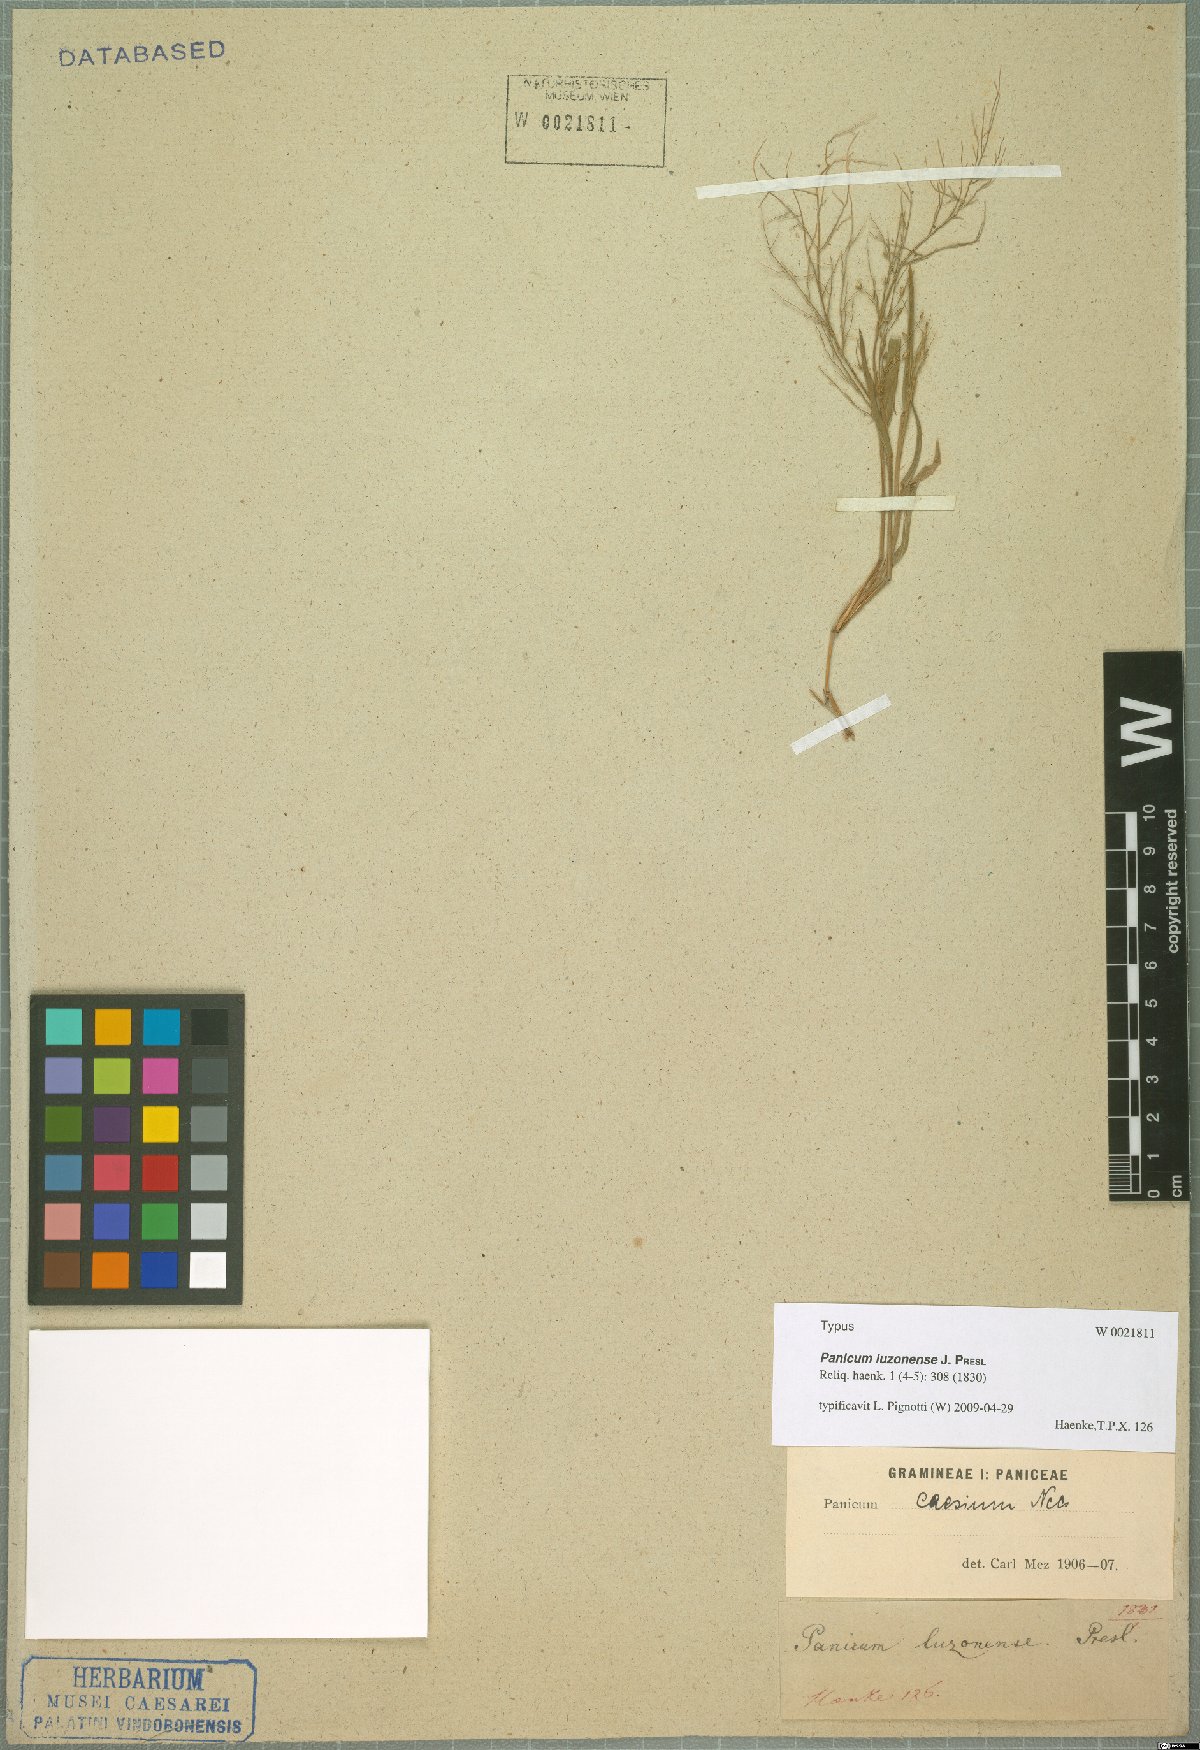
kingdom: Plantae
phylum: Tracheophyta
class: Liliopsida
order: Poales
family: Poaceae
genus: Panicum
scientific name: Panicum luzonense
